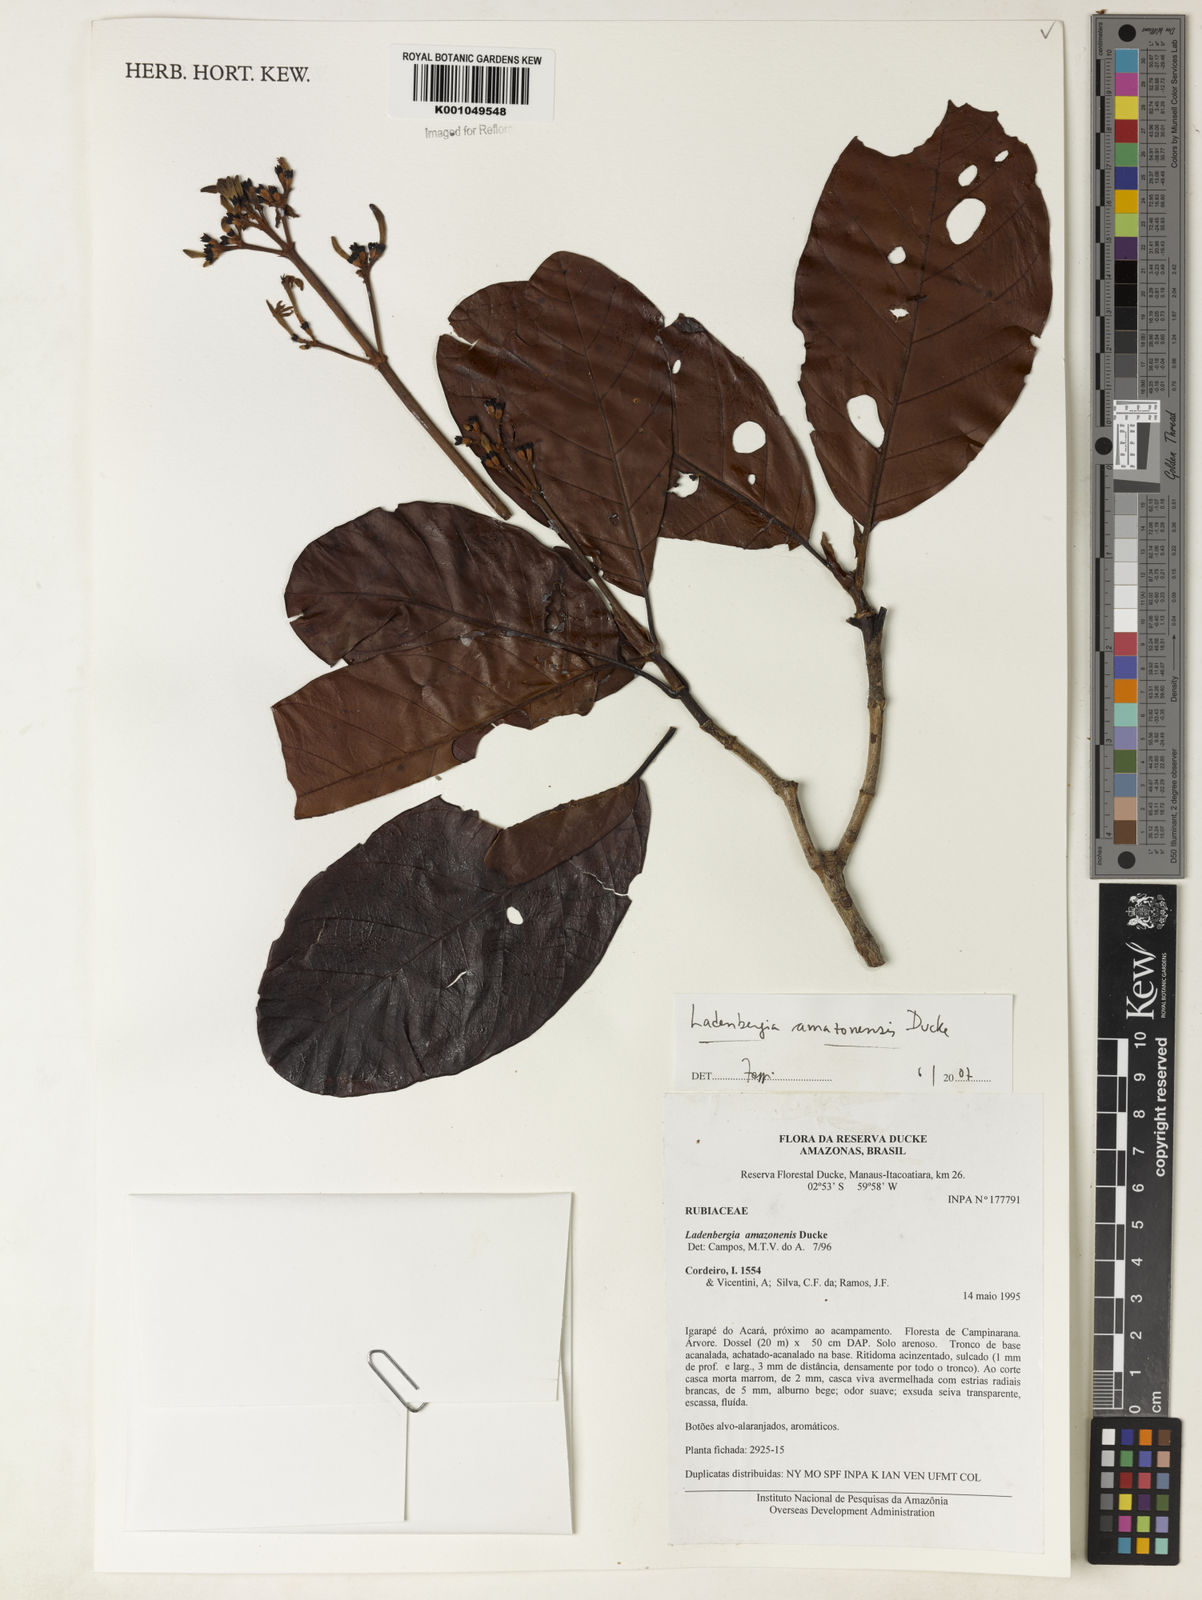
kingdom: Plantae
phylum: Tracheophyta
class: Magnoliopsida
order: Gentianales
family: Rubiaceae
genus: Ladenbergia
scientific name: Ladenbergia amazonensis
